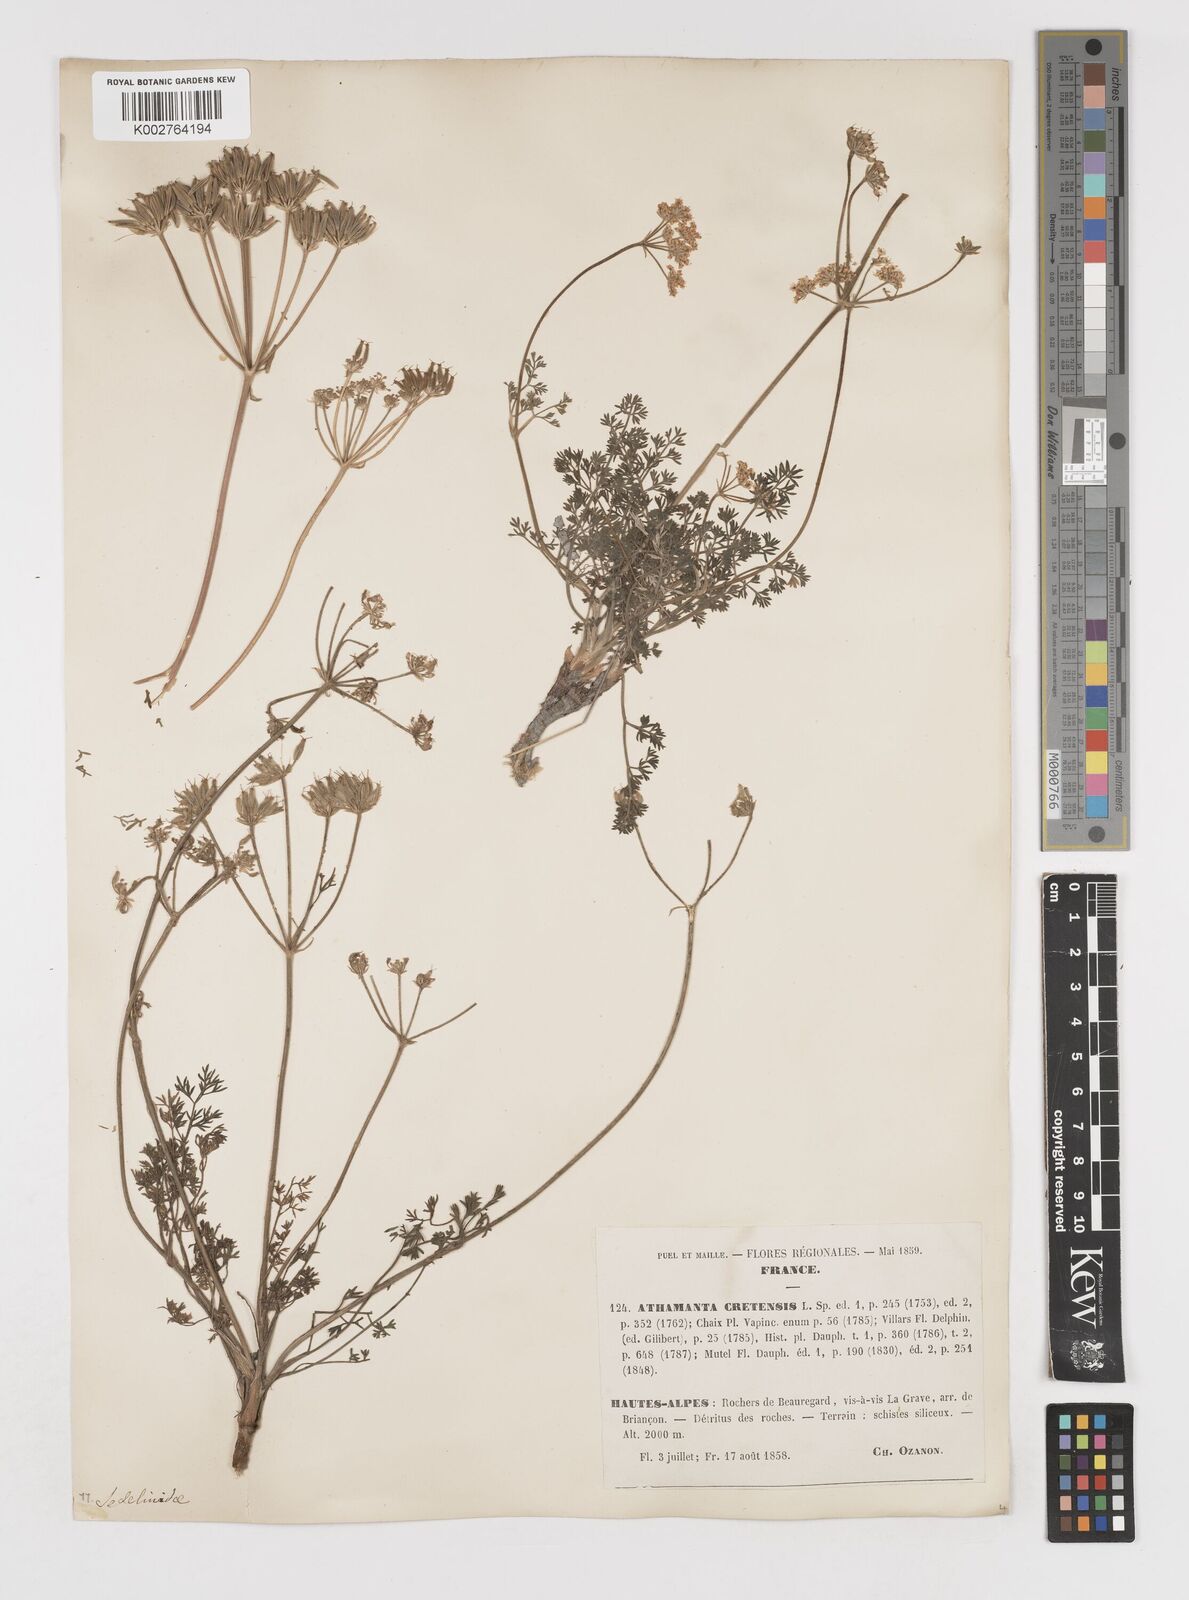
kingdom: Plantae
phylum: Tracheophyta
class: Magnoliopsida
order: Apiales
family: Apiaceae
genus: Athamanta
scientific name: Athamanta cretensis
